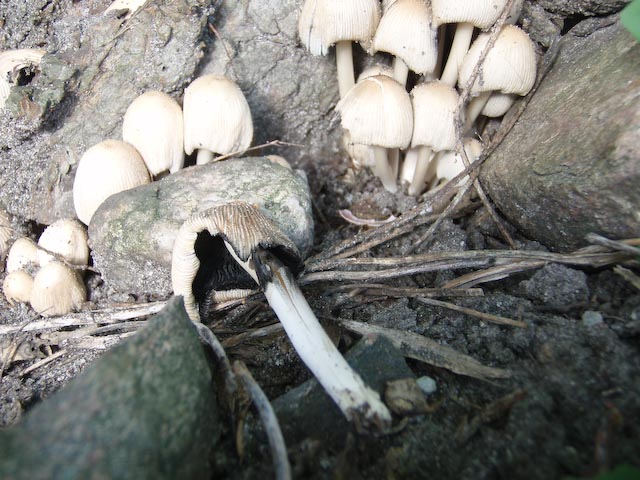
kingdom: Fungi
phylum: Basidiomycota
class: Agaricomycetes
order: Agaricales
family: Psathyrellaceae
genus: Coprinellus
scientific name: Coprinellus micaceus
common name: glimmer-blækhat
